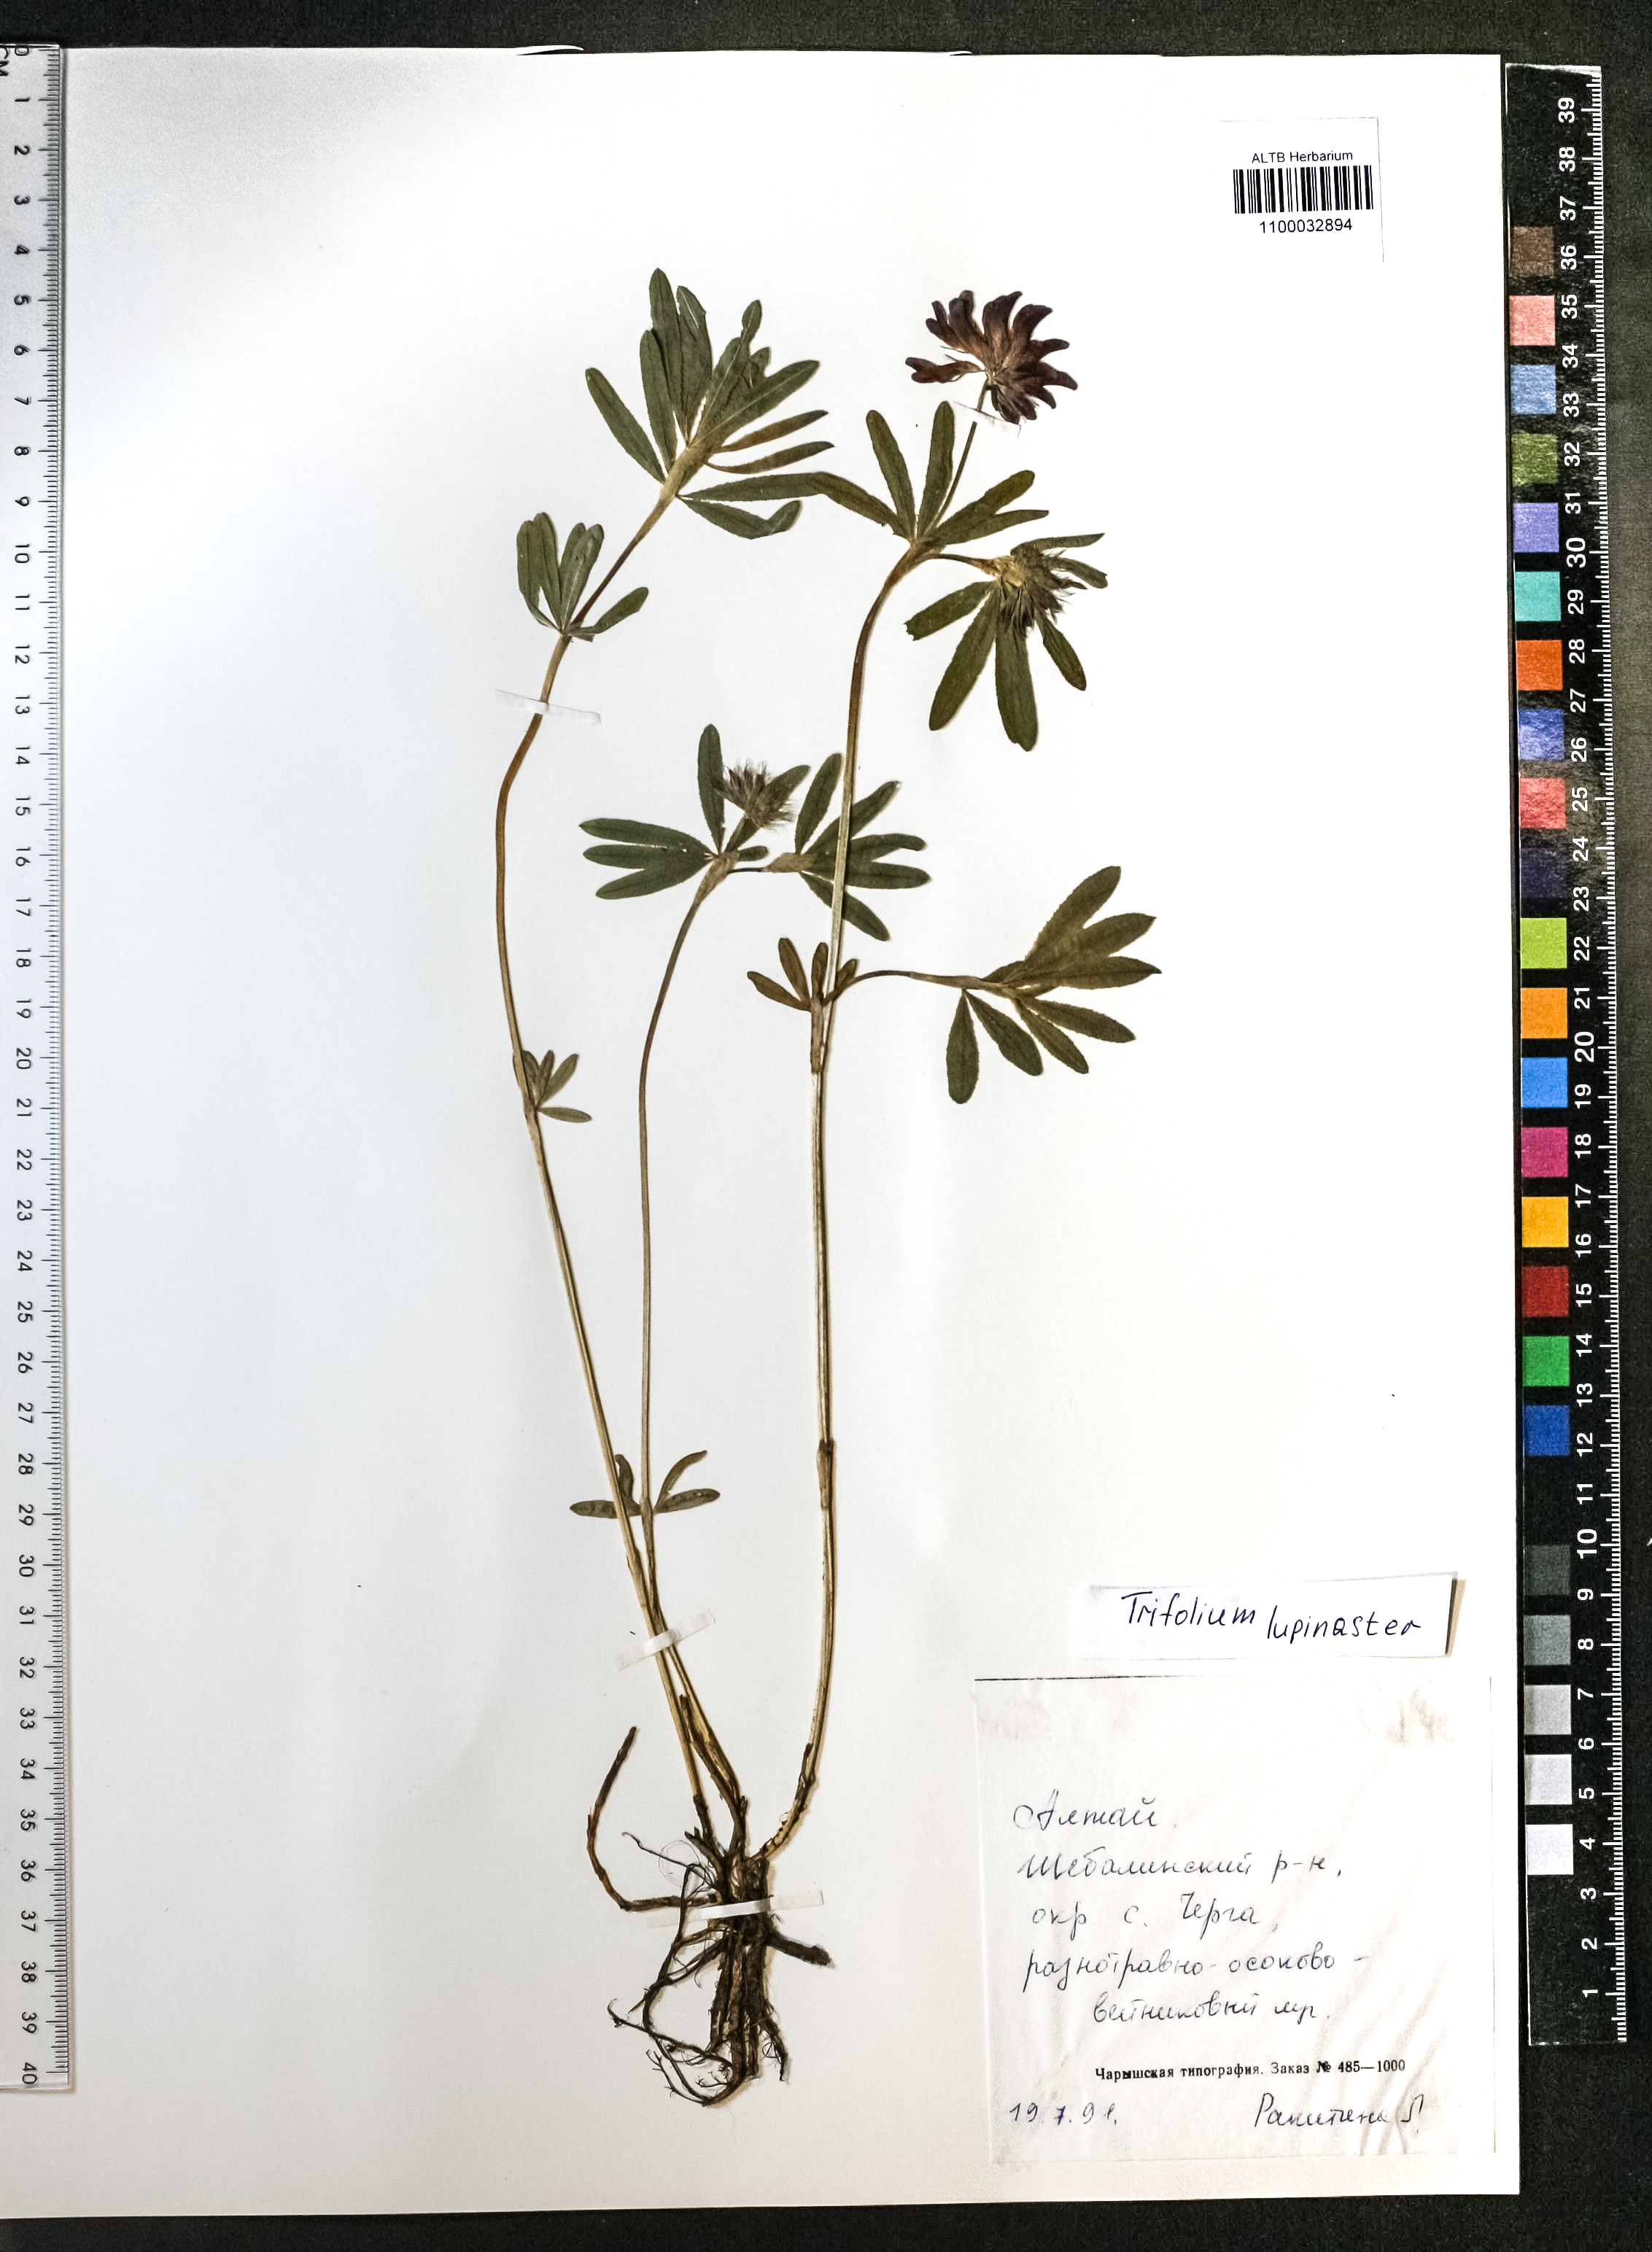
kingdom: Plantae
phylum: Tracheophyta
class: Magnoliopsida
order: Fabales
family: Fabaceae
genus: Trifolium
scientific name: Trifolium lupinaster
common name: Lupine clover
